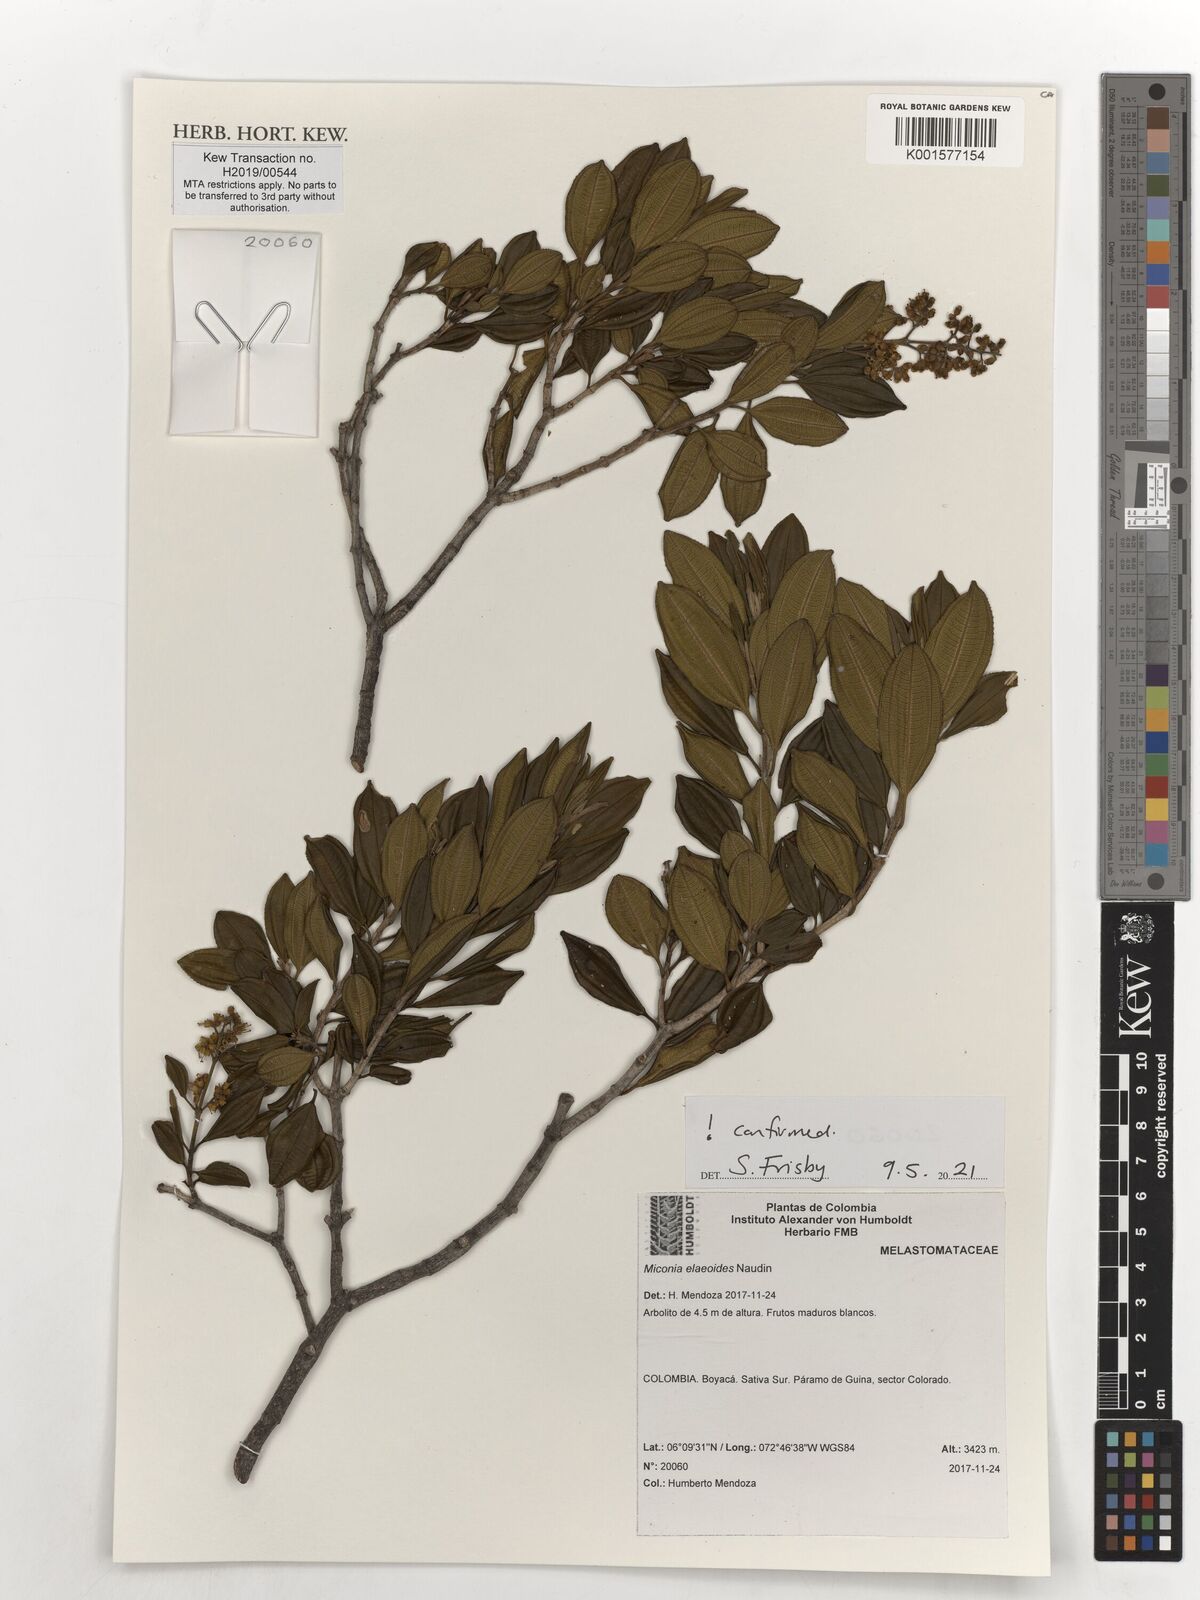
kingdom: Plantae
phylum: Tracheophyta
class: Magnoliopsida
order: Myrtales
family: Melastomataceae
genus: Miconia
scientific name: Miconia elaeoides
